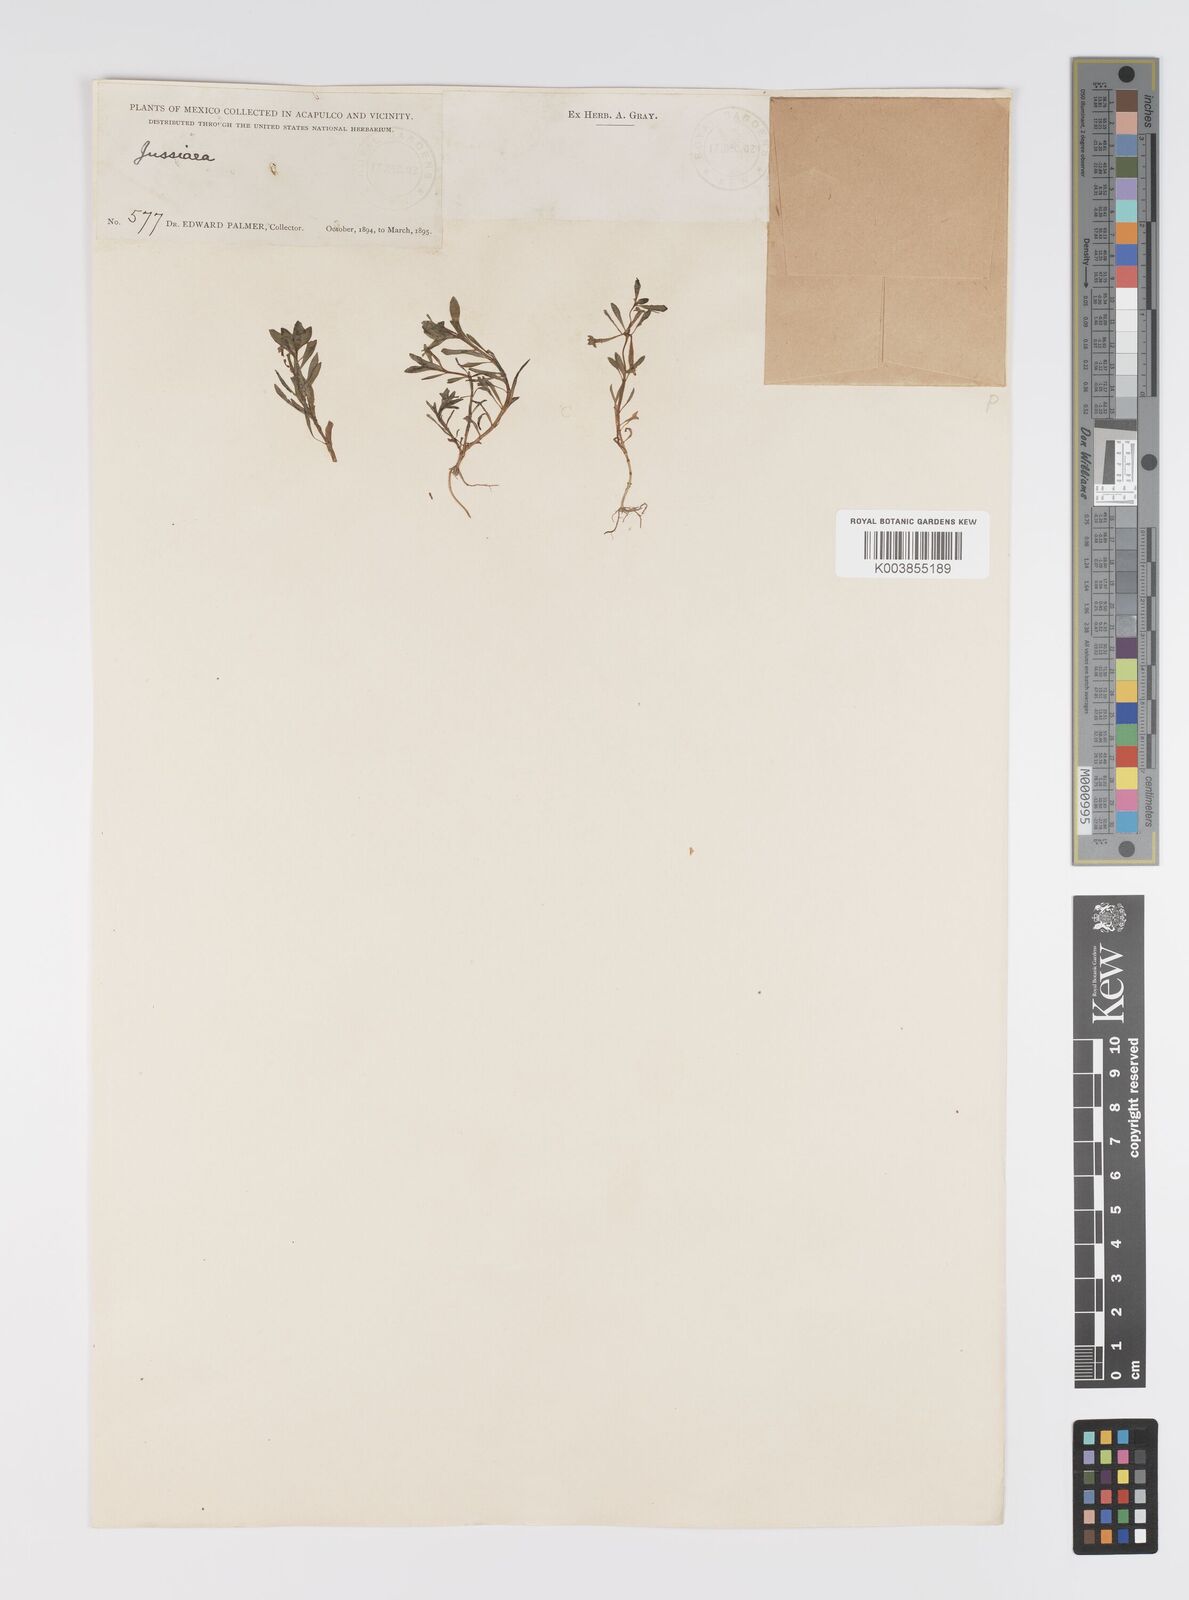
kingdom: Plantae
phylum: Tracheophyta
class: Magnoliopsida
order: Myrtales
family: Onagraceae
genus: Ludwigia
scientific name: Ludwigia
